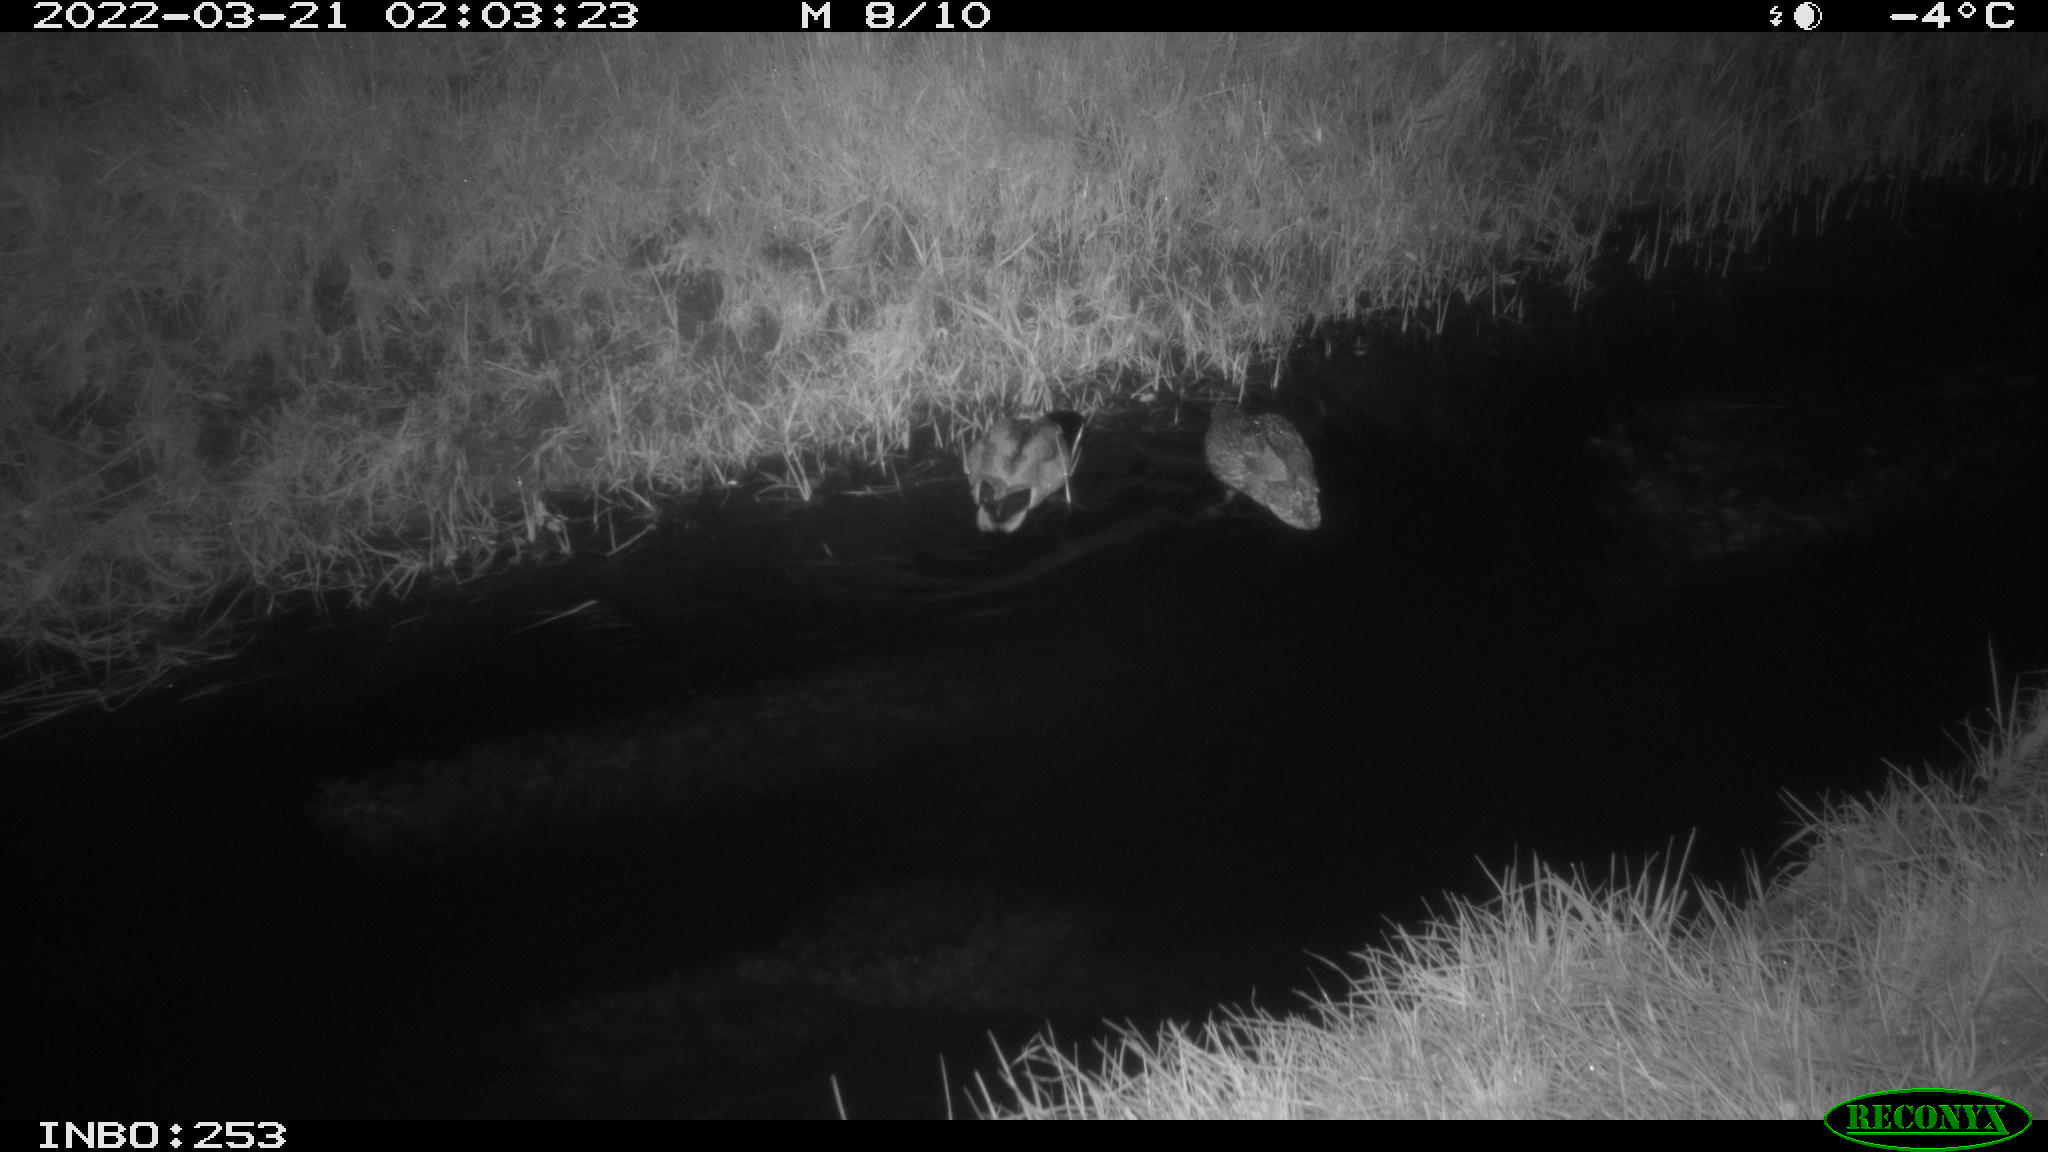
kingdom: Animalia
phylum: Chordata
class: Aves
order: Anseriformes
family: Anatidae
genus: Anas
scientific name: Anas platyrhynchos
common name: Mallard
